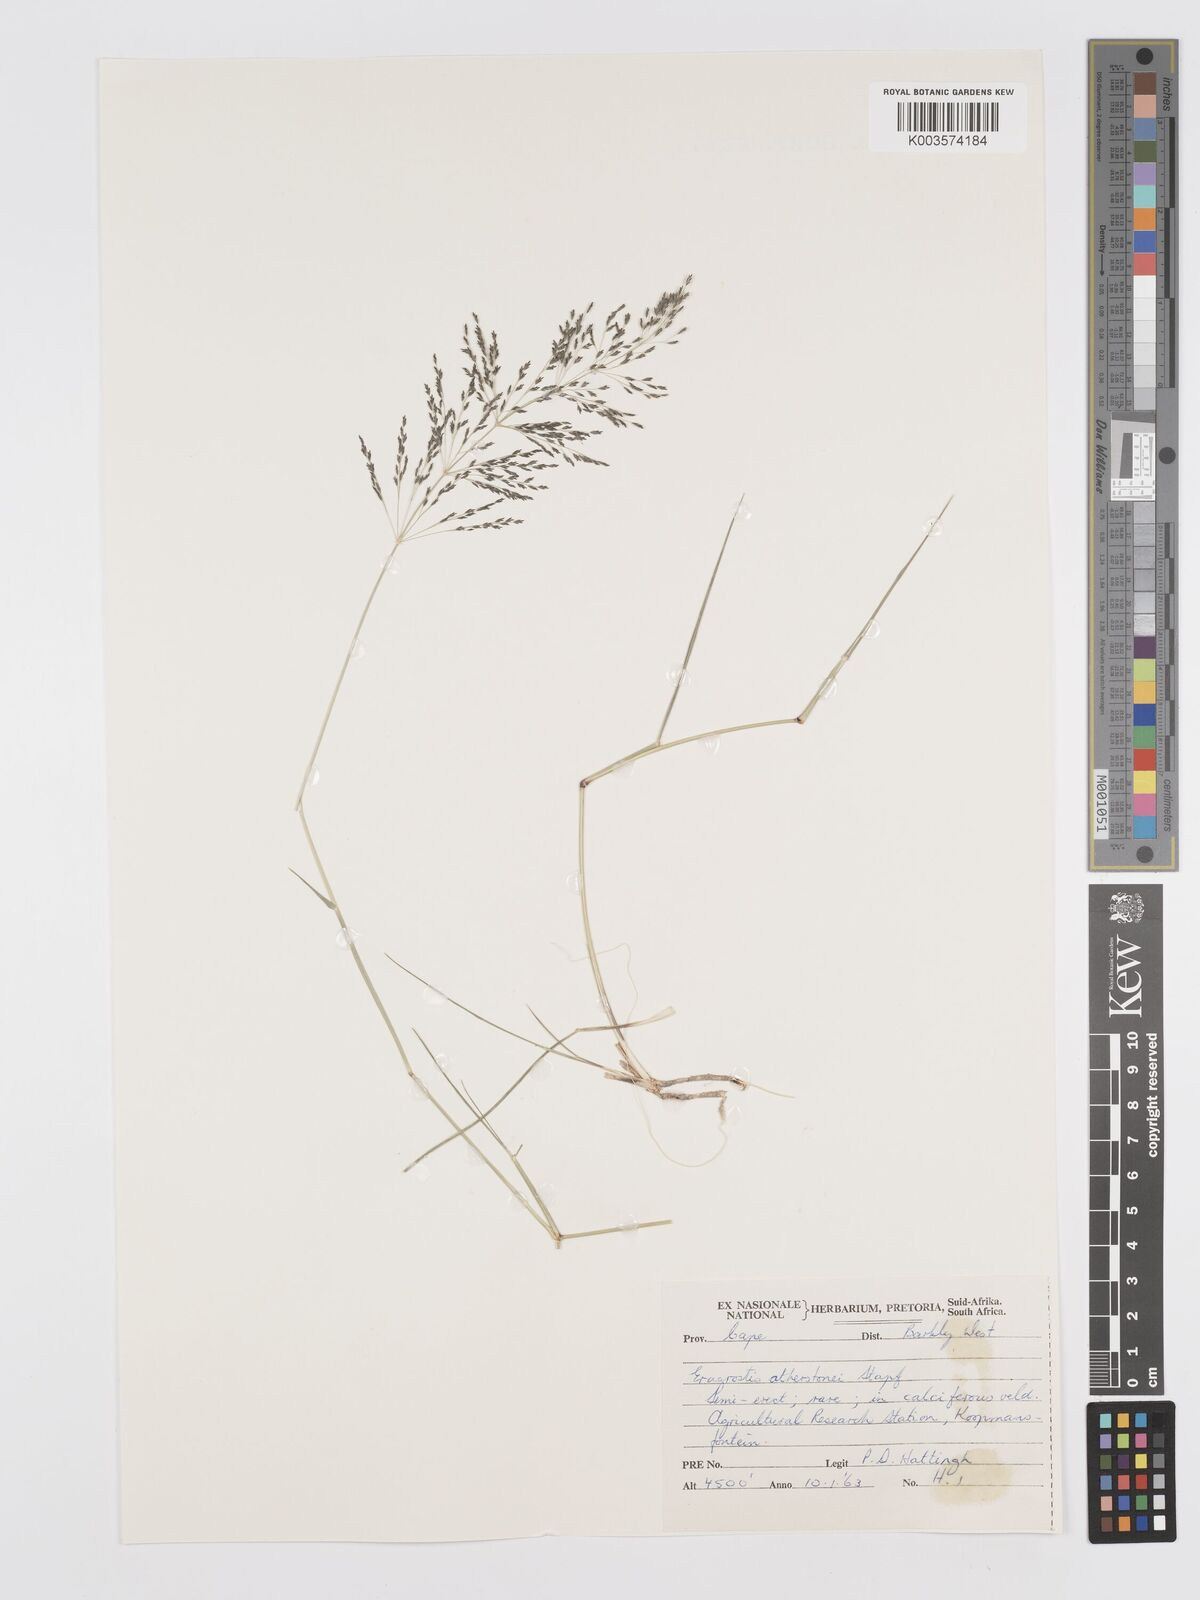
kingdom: Plantae
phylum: Tracheophyta
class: Liliopsida
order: Poales
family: Poaceae
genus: Eragrostis
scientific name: Eragrostis cylindriflora
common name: Cylinderflower lovegrass
